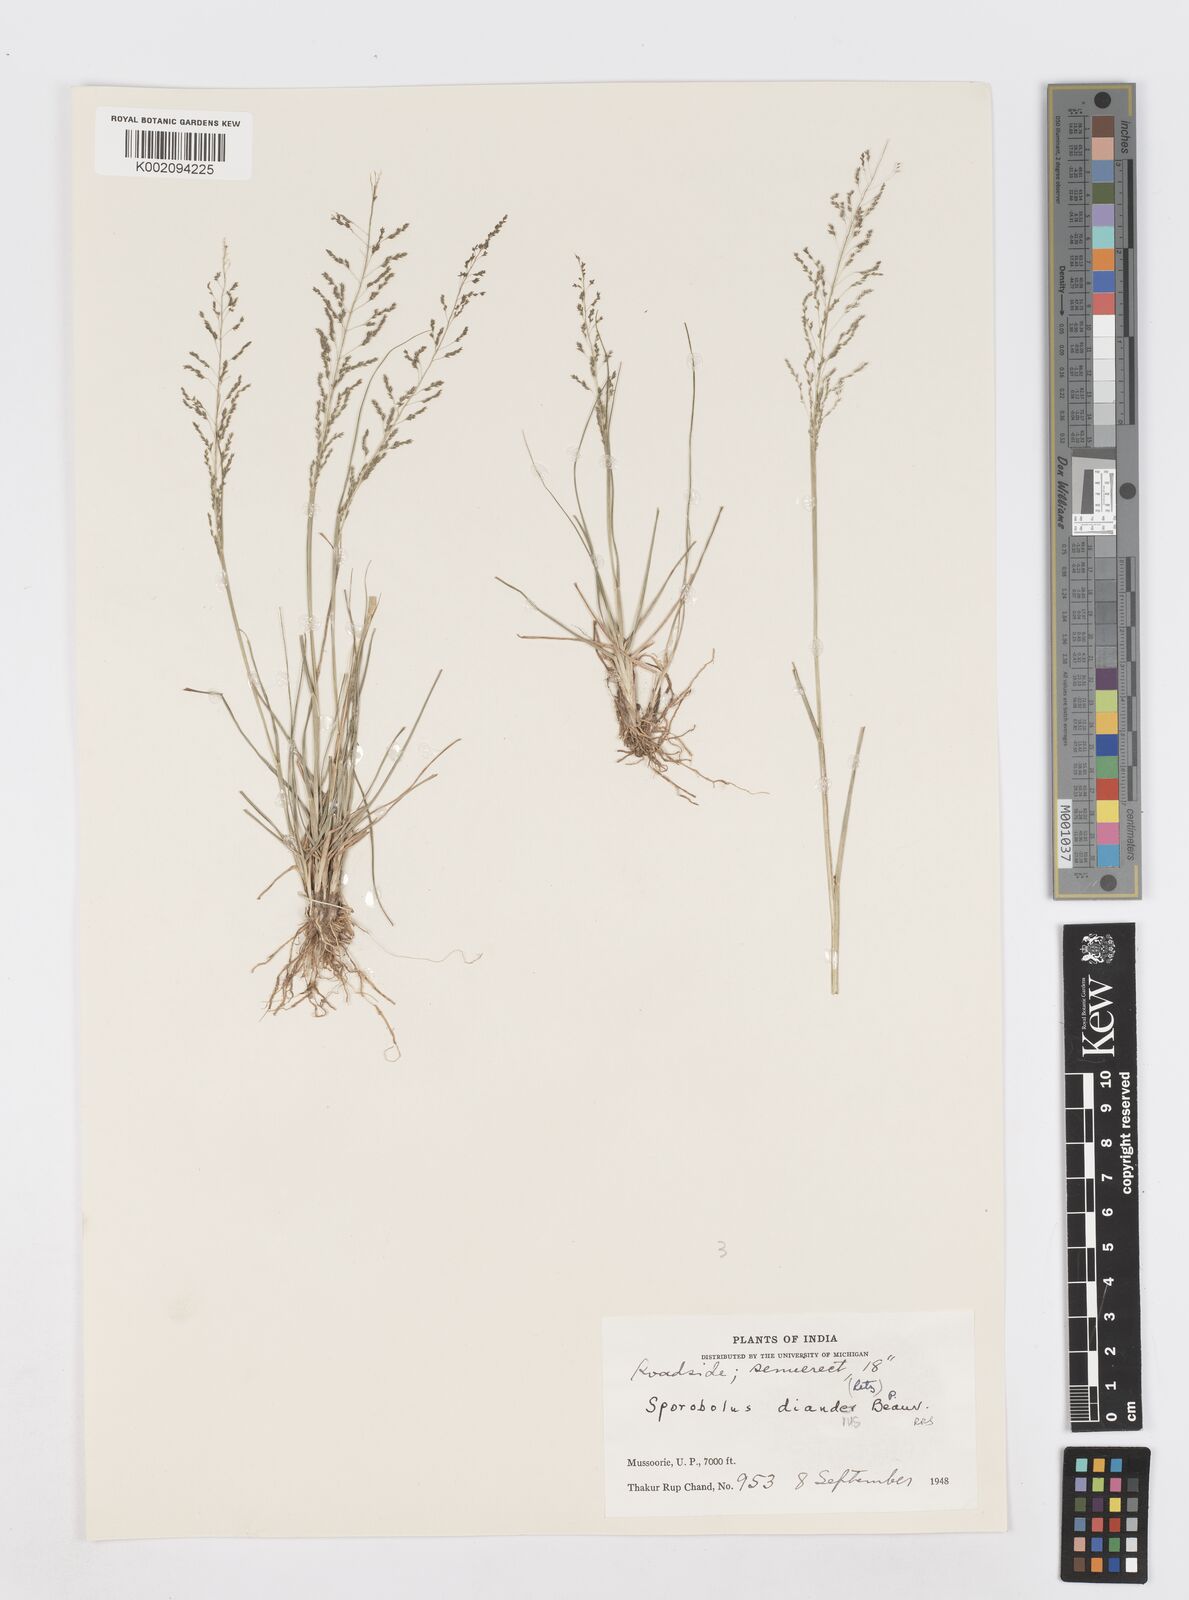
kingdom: Plantae
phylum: Tracheophyta
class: Liliopsida
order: Poales
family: Poaceae
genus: Sporobolus
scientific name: Sporobolus diandrus
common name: Tussock dropseed
